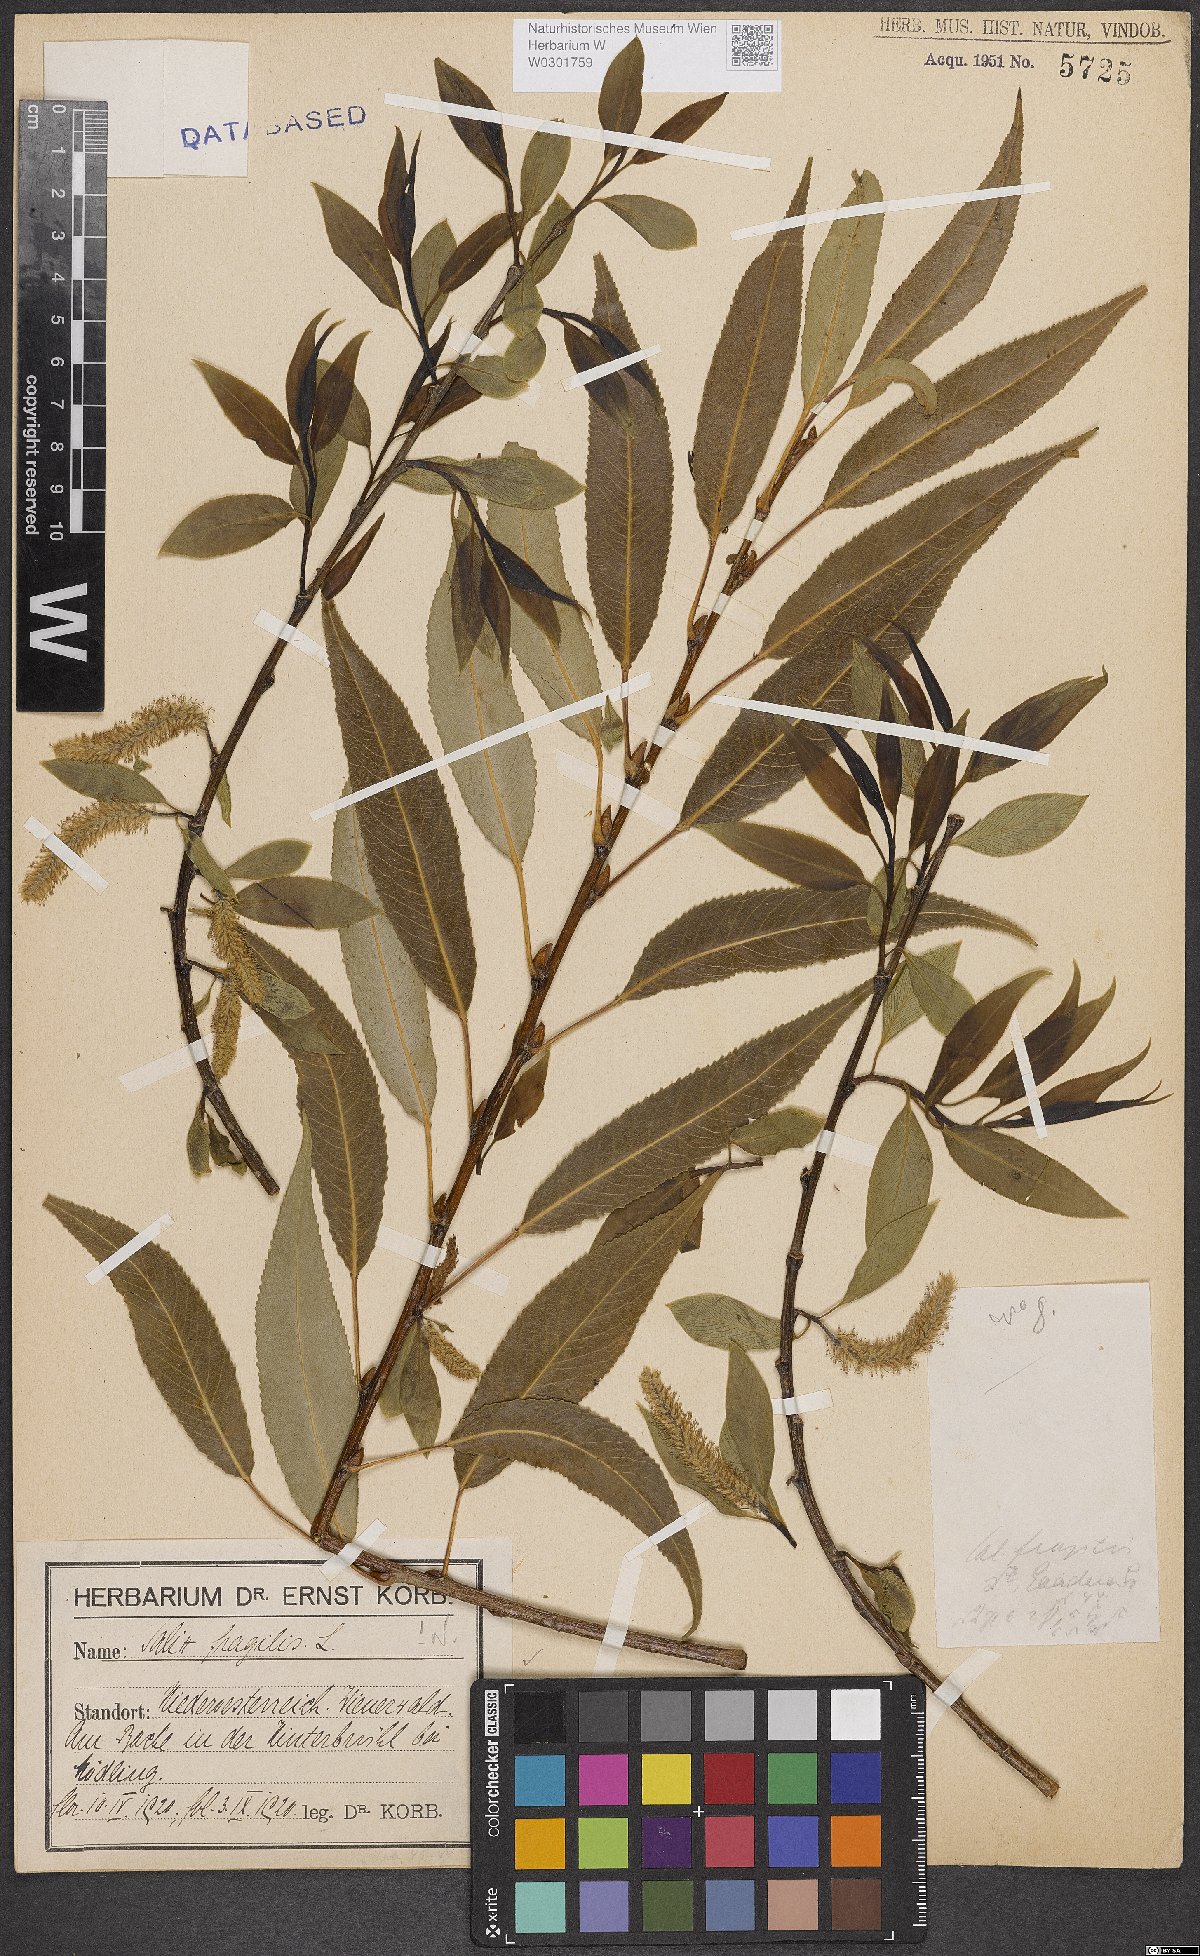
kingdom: Plantae
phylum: Tracheophyta
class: Magnoliopsida
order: Malpighiales
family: Salicaceae
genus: Salix
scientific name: Salix fragilis
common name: Crack willow
